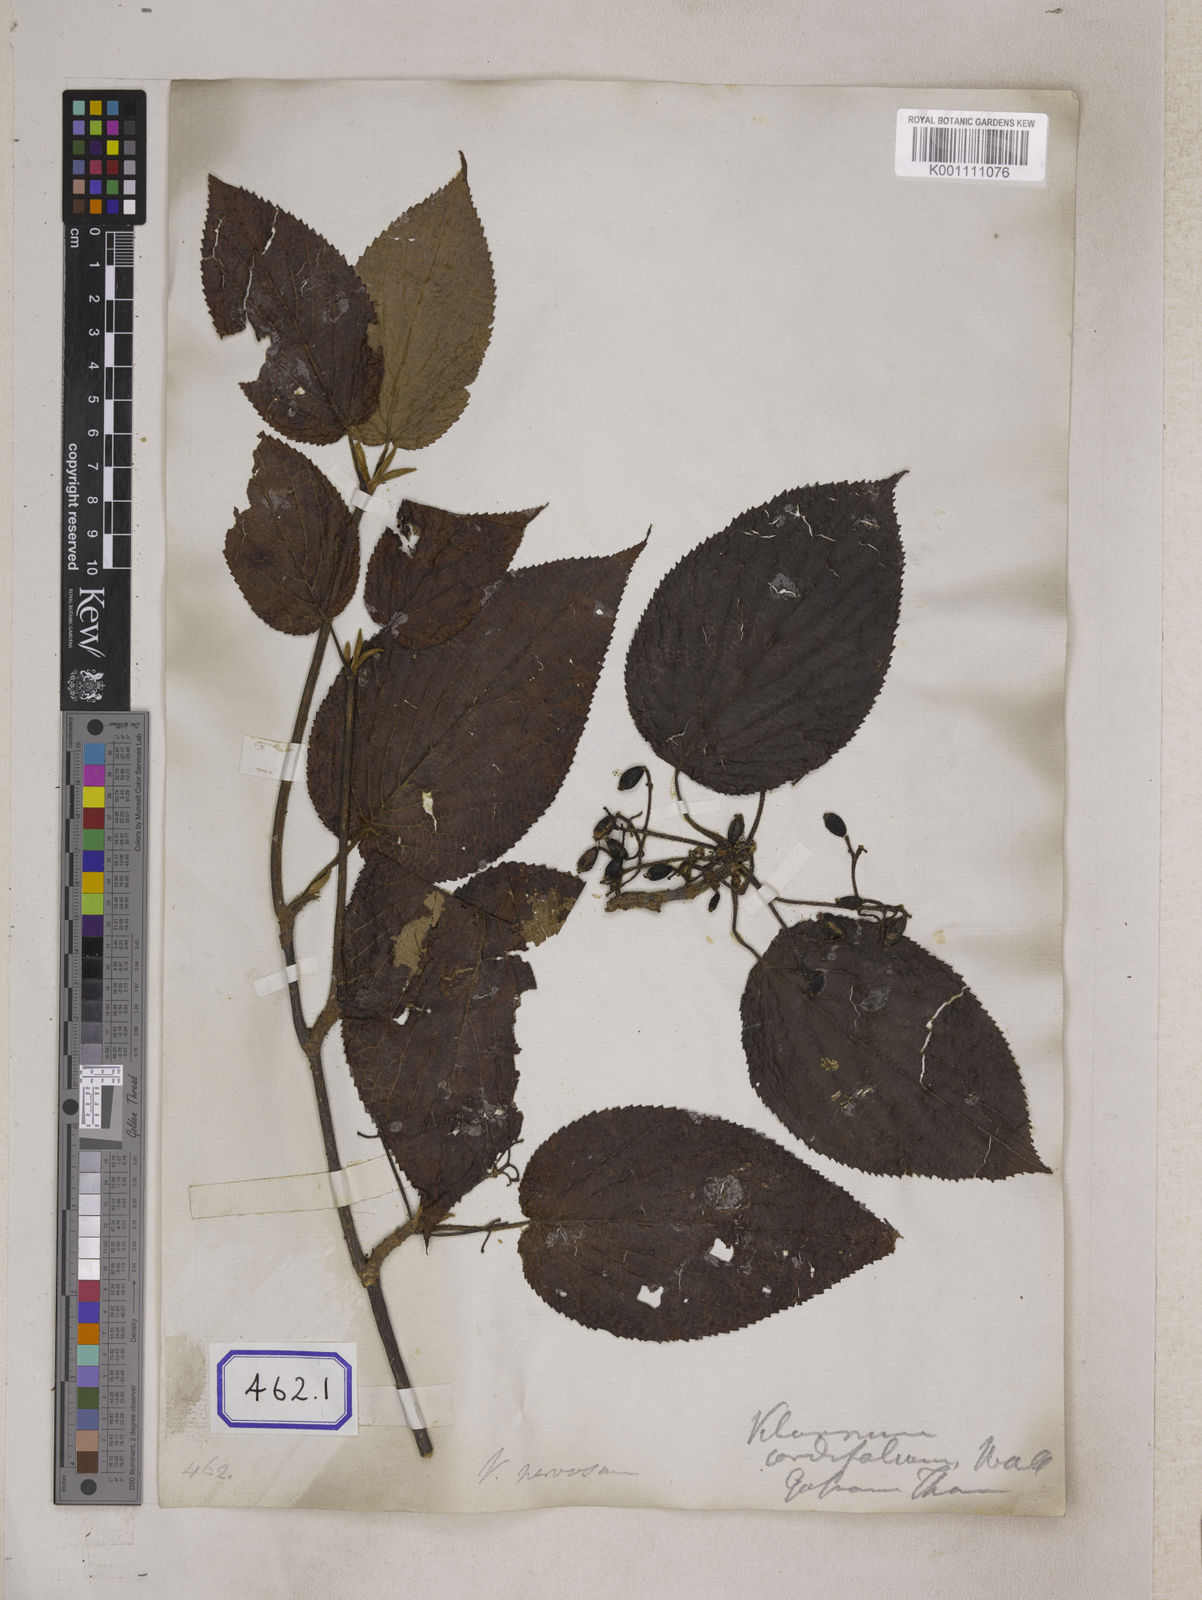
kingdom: Plantae
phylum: Tracheophyta
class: Magnoliopsida
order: Dipsacales
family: Viburnaceae
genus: Viburnum
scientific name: Viburnum
